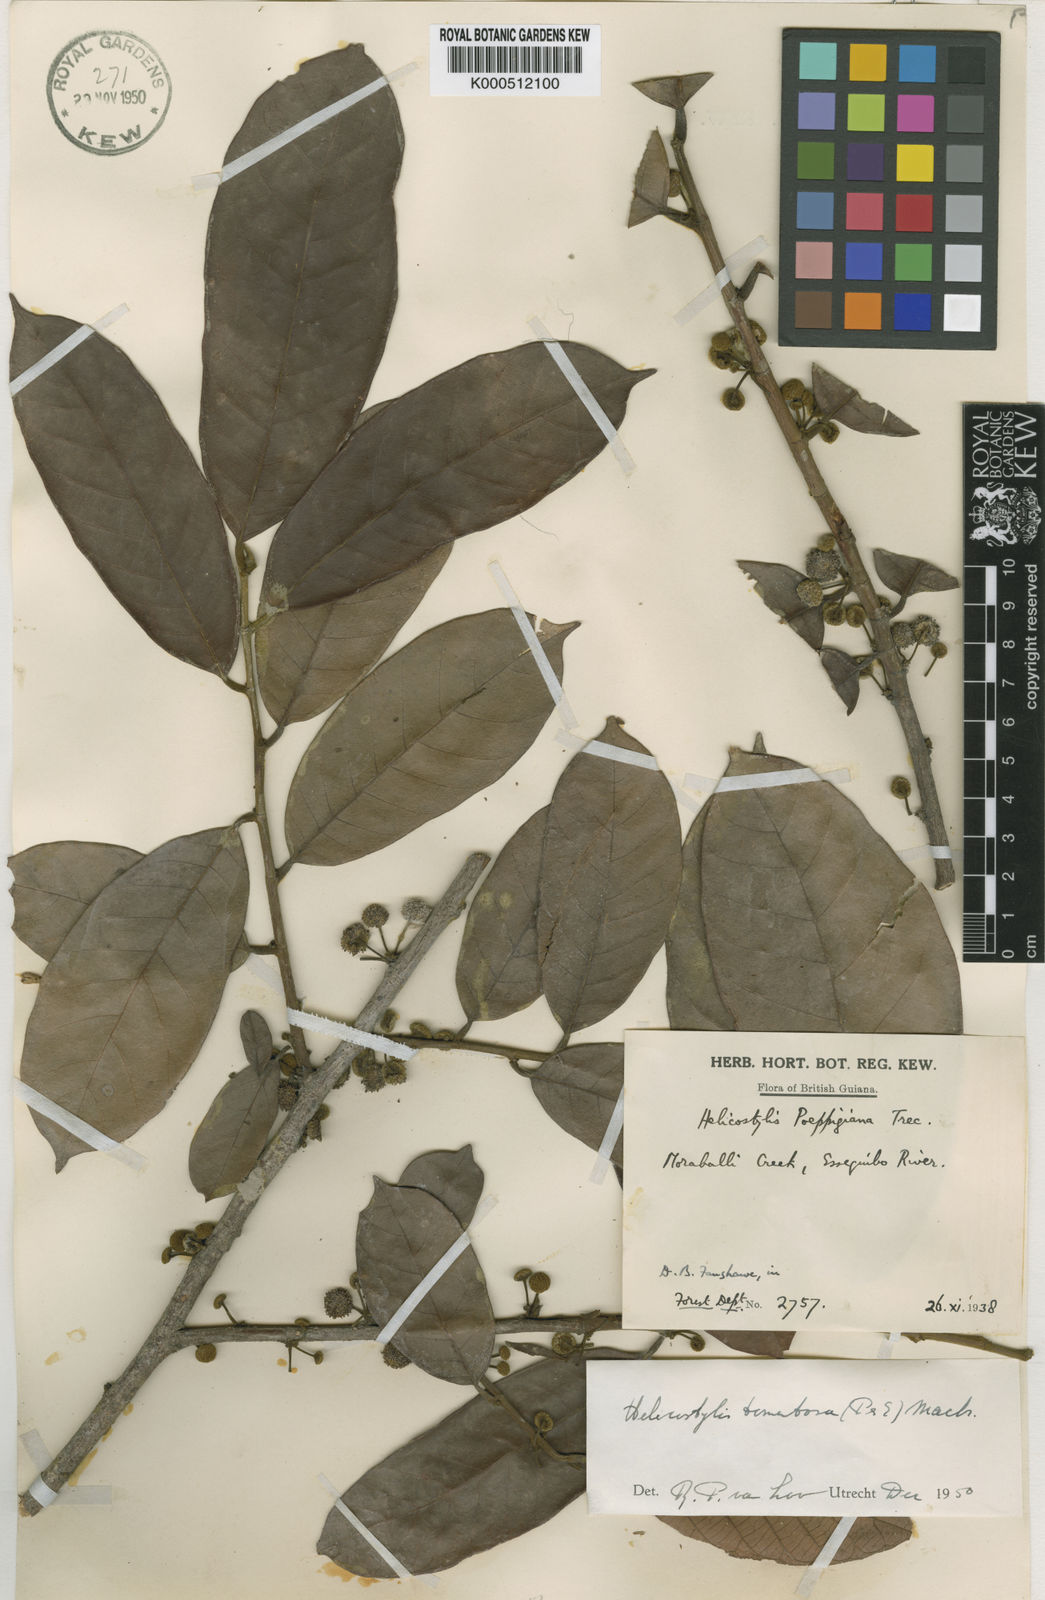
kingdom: Plantae
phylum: Tracheophyta
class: Magnoliopsida
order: Rosales
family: Moraceae
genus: Helicostylis
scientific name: Helicostylis
